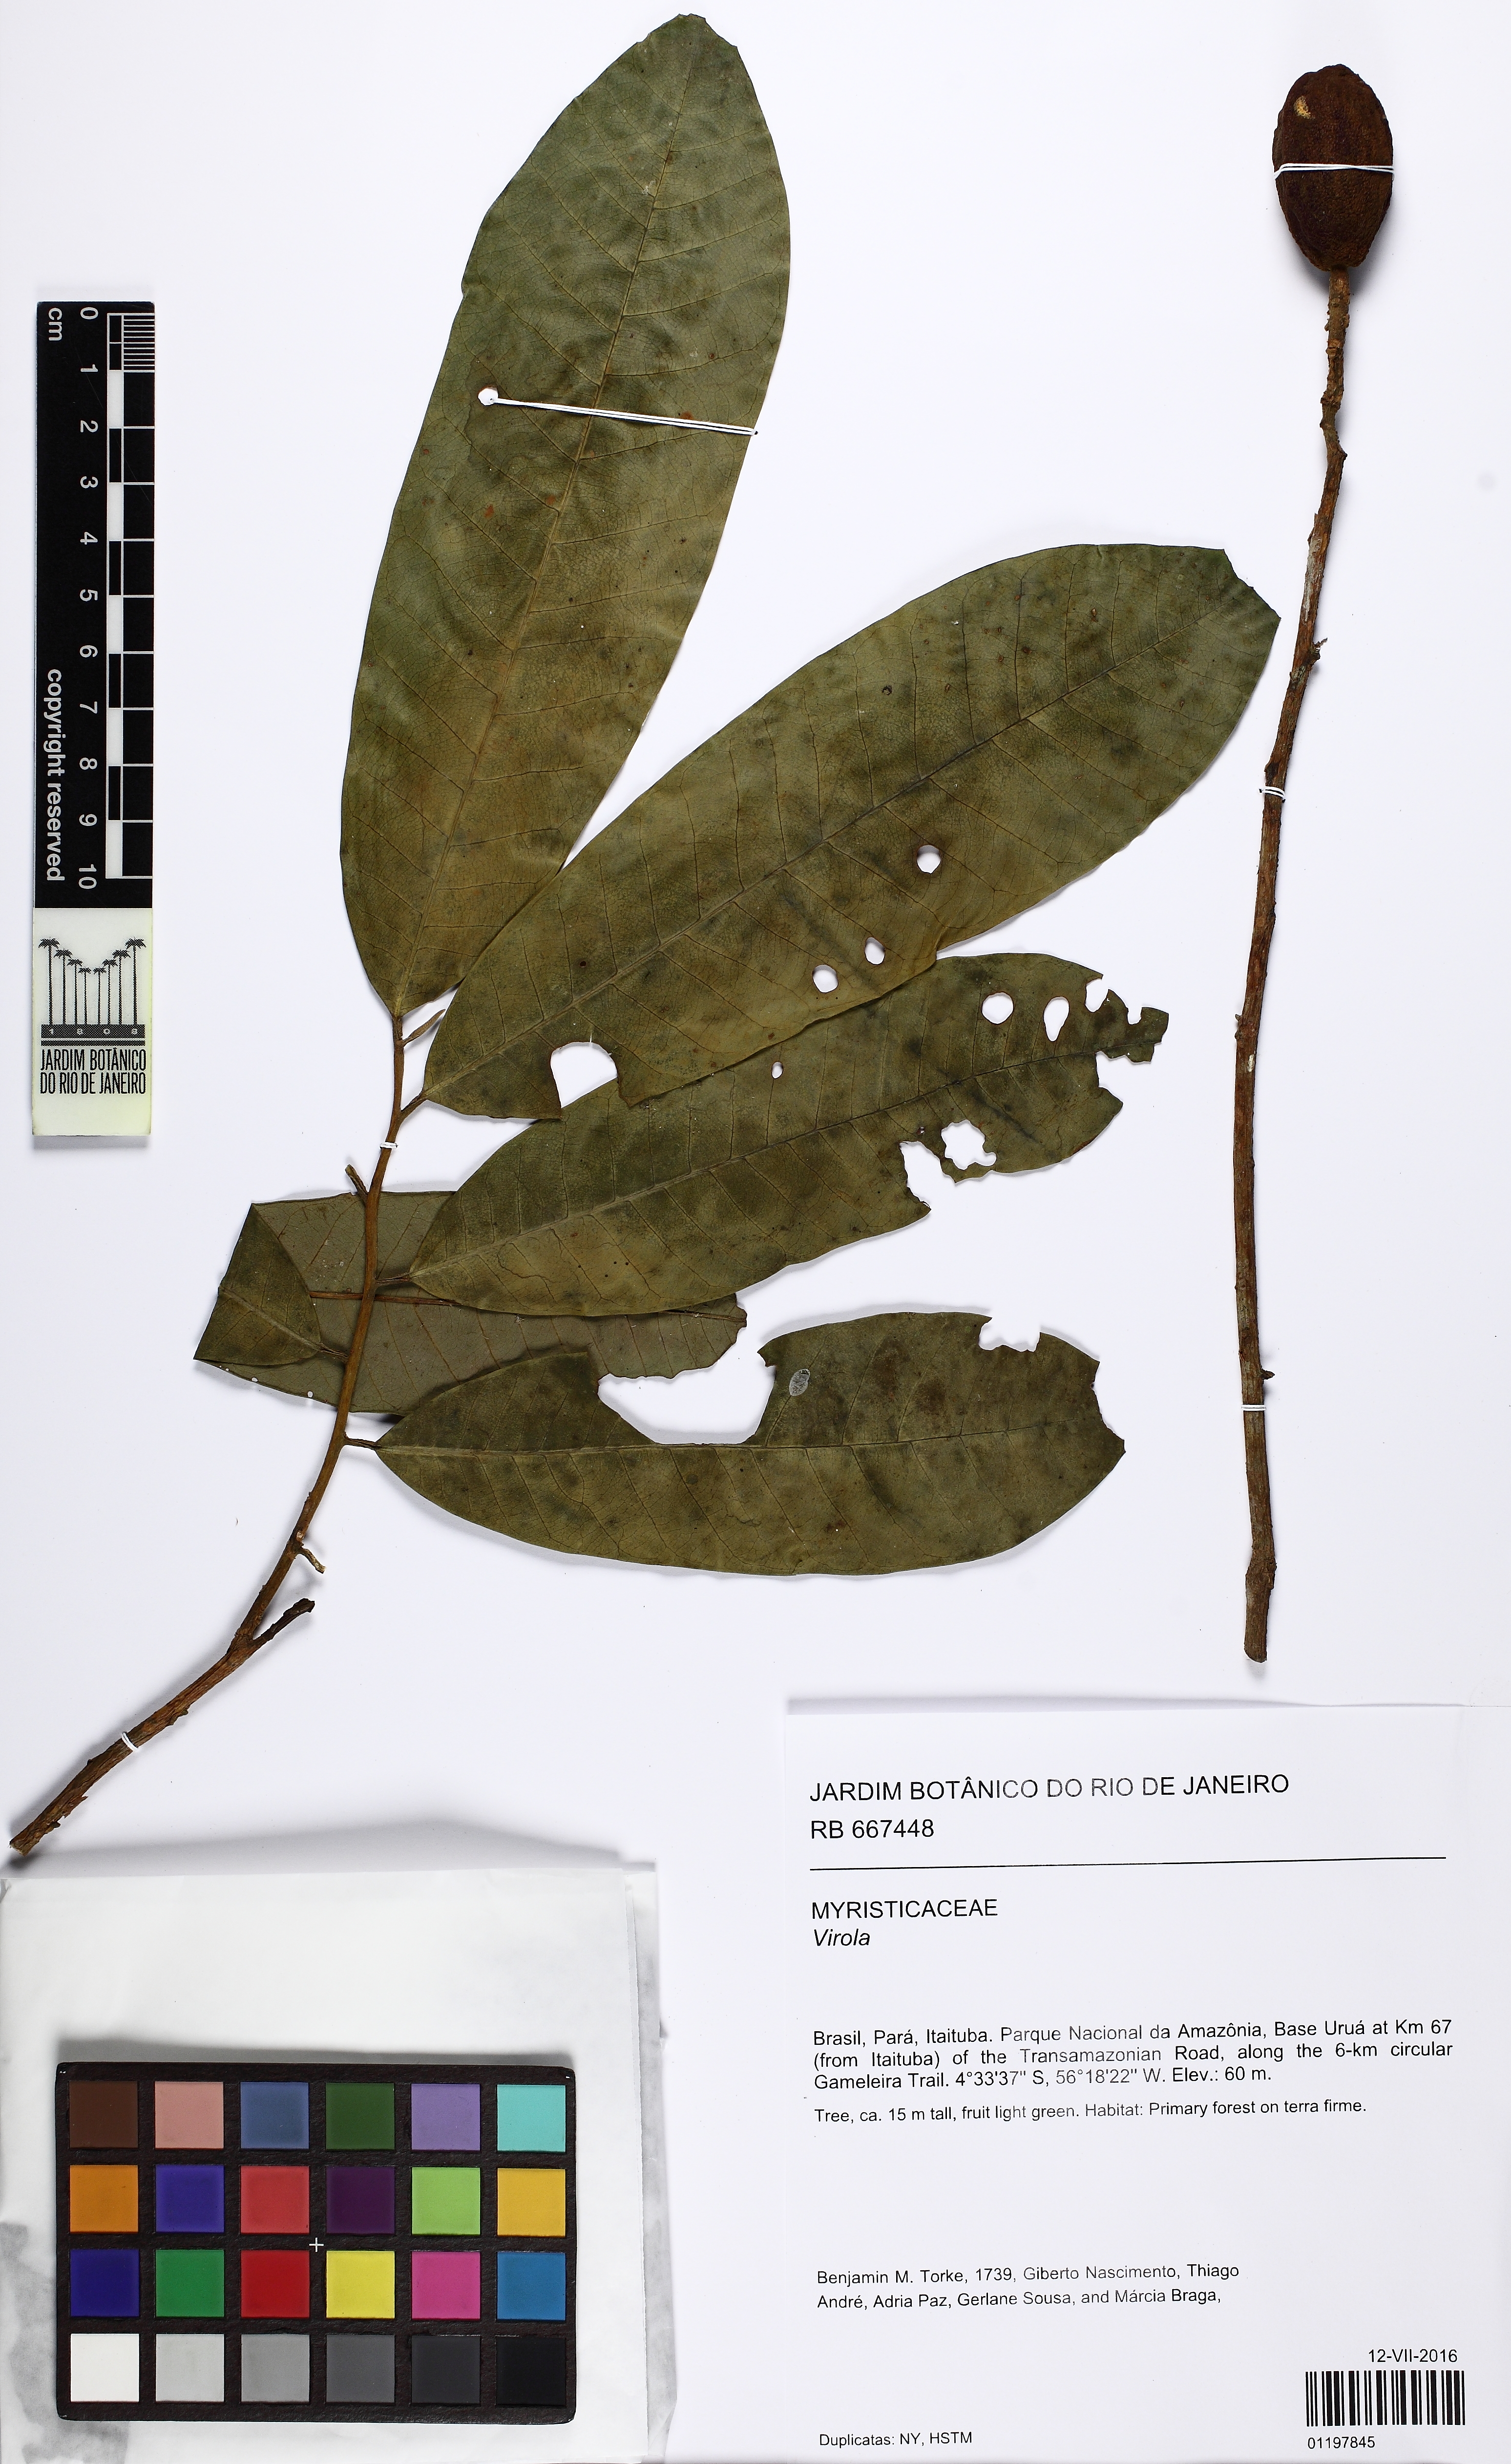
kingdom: Plantae
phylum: Tracheophyta
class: Magnoliopsida
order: Magnoliales
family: Myristicaceae
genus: Virola
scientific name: Virola
